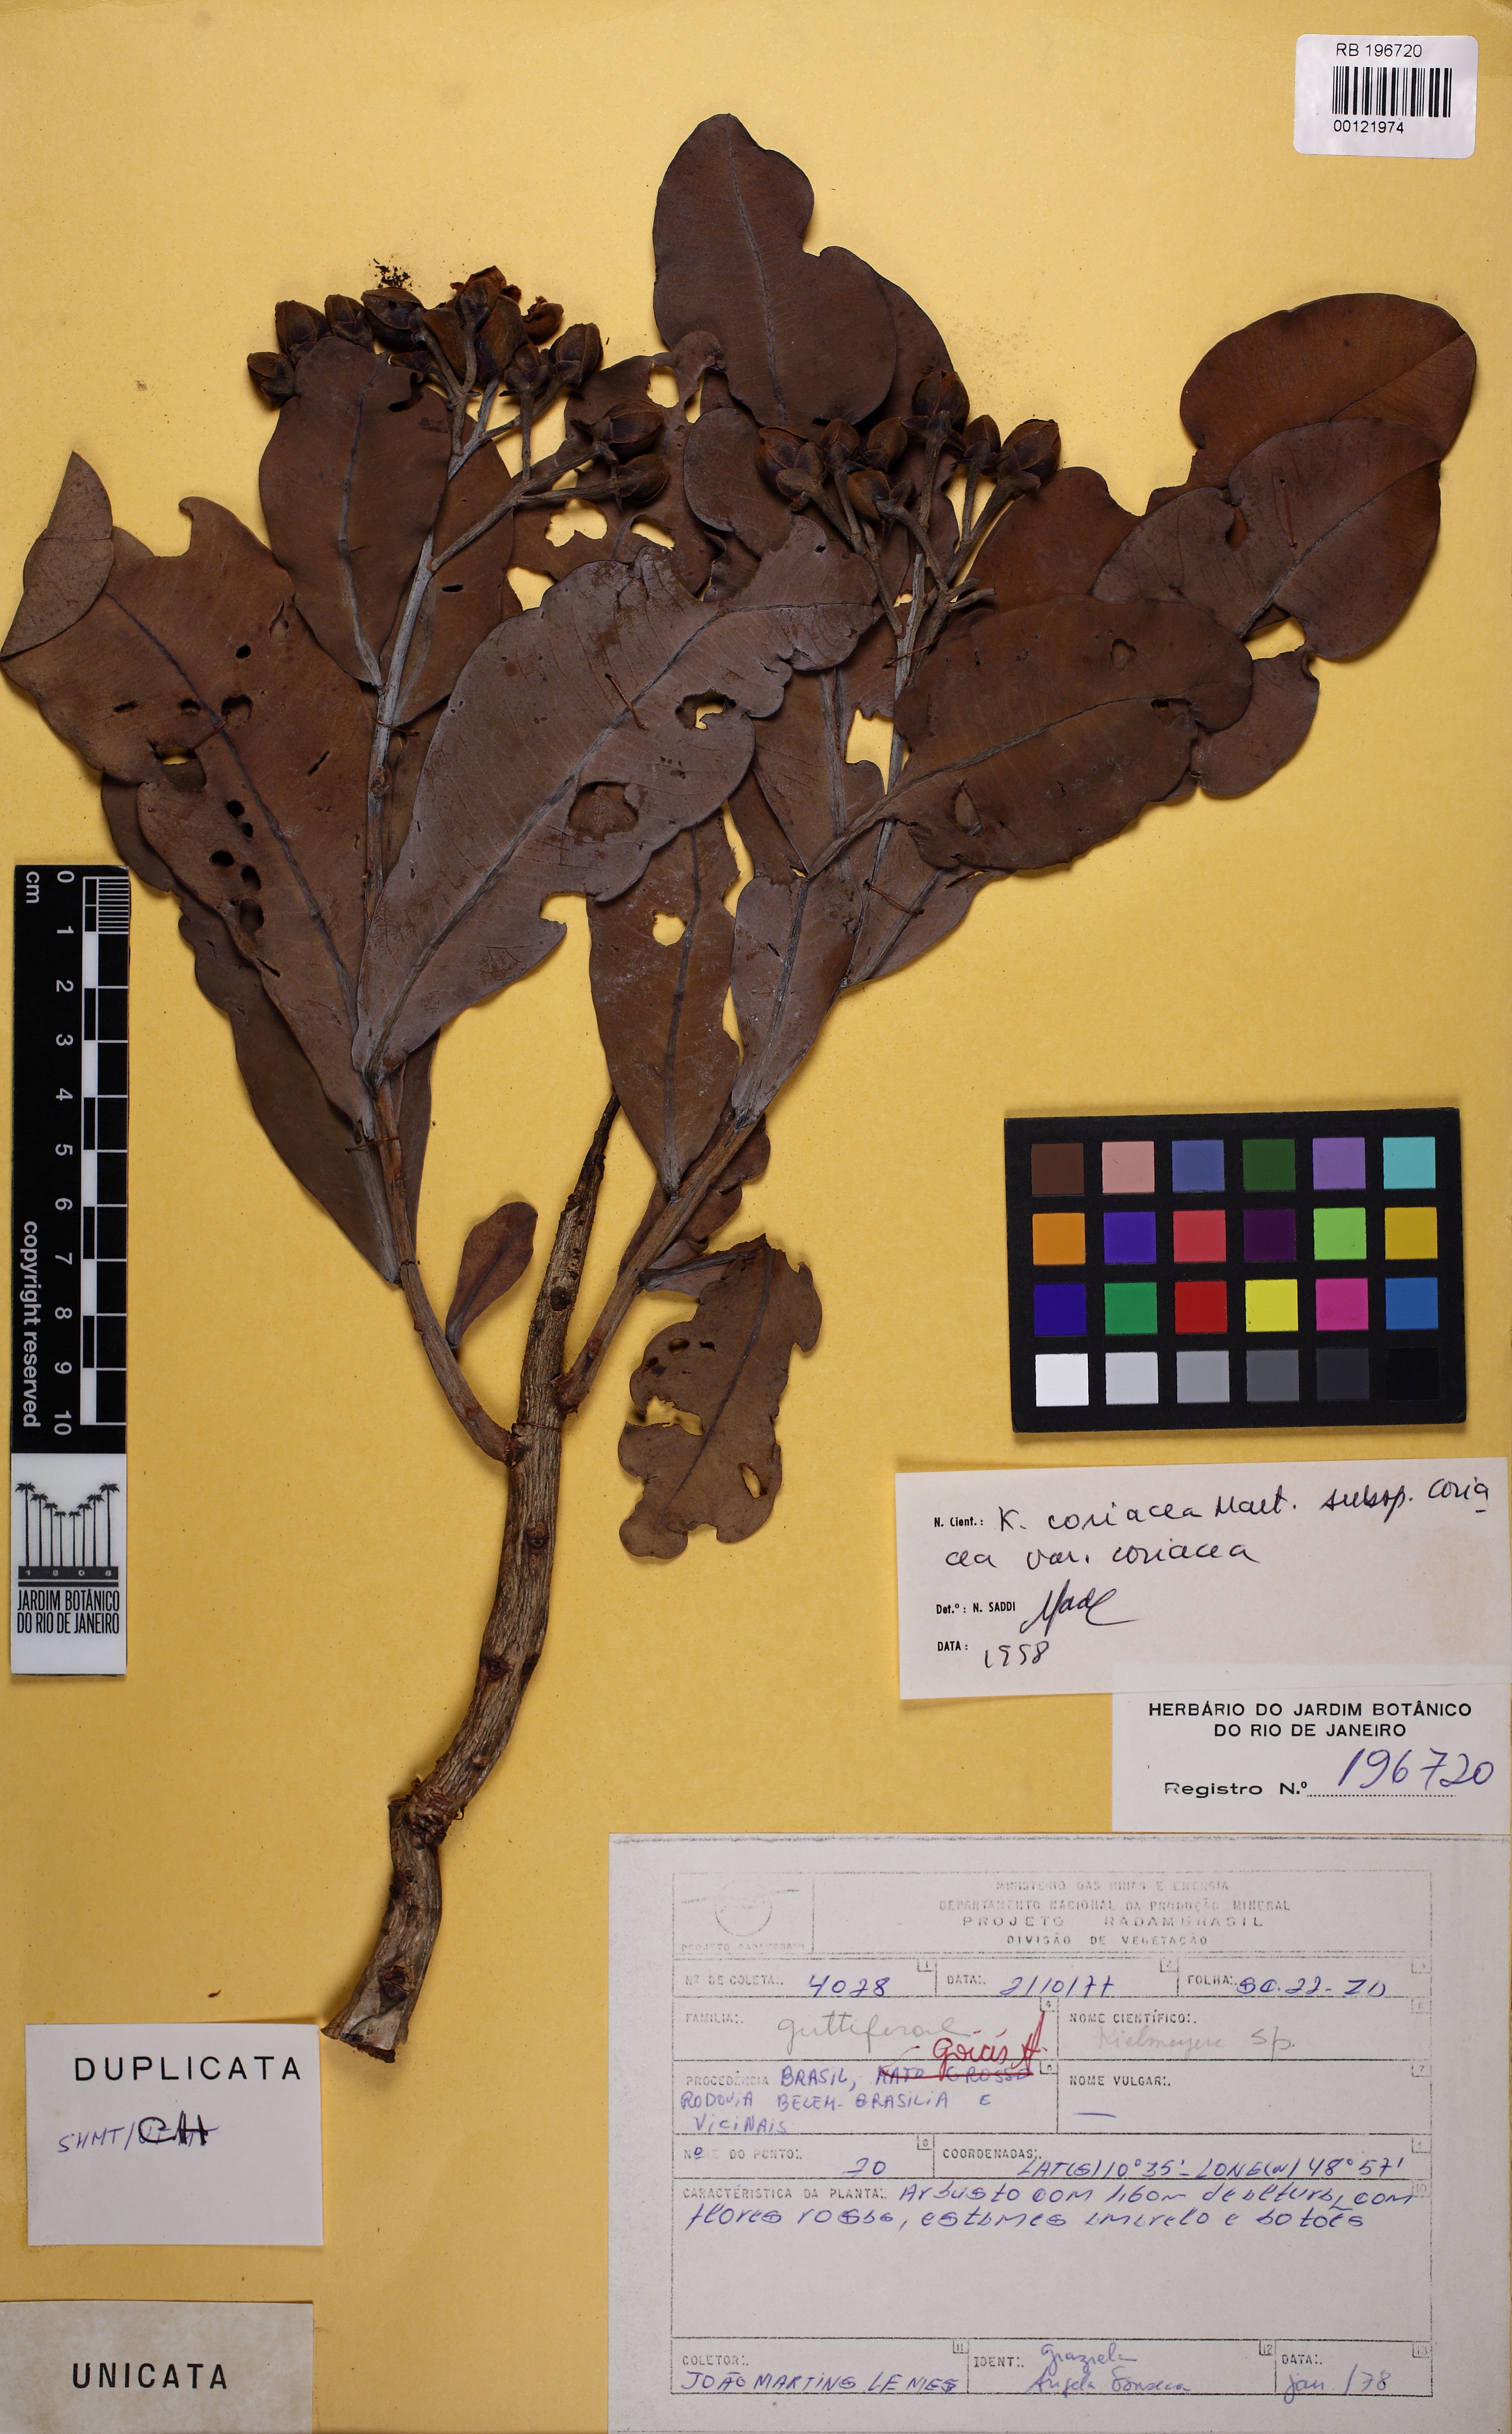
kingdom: Plantae
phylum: Tracheophyta
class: Magnoliopsida
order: Malpighiales
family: Calophyllaceae
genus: Kielmeyera
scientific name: Kielmeyera coriacea
